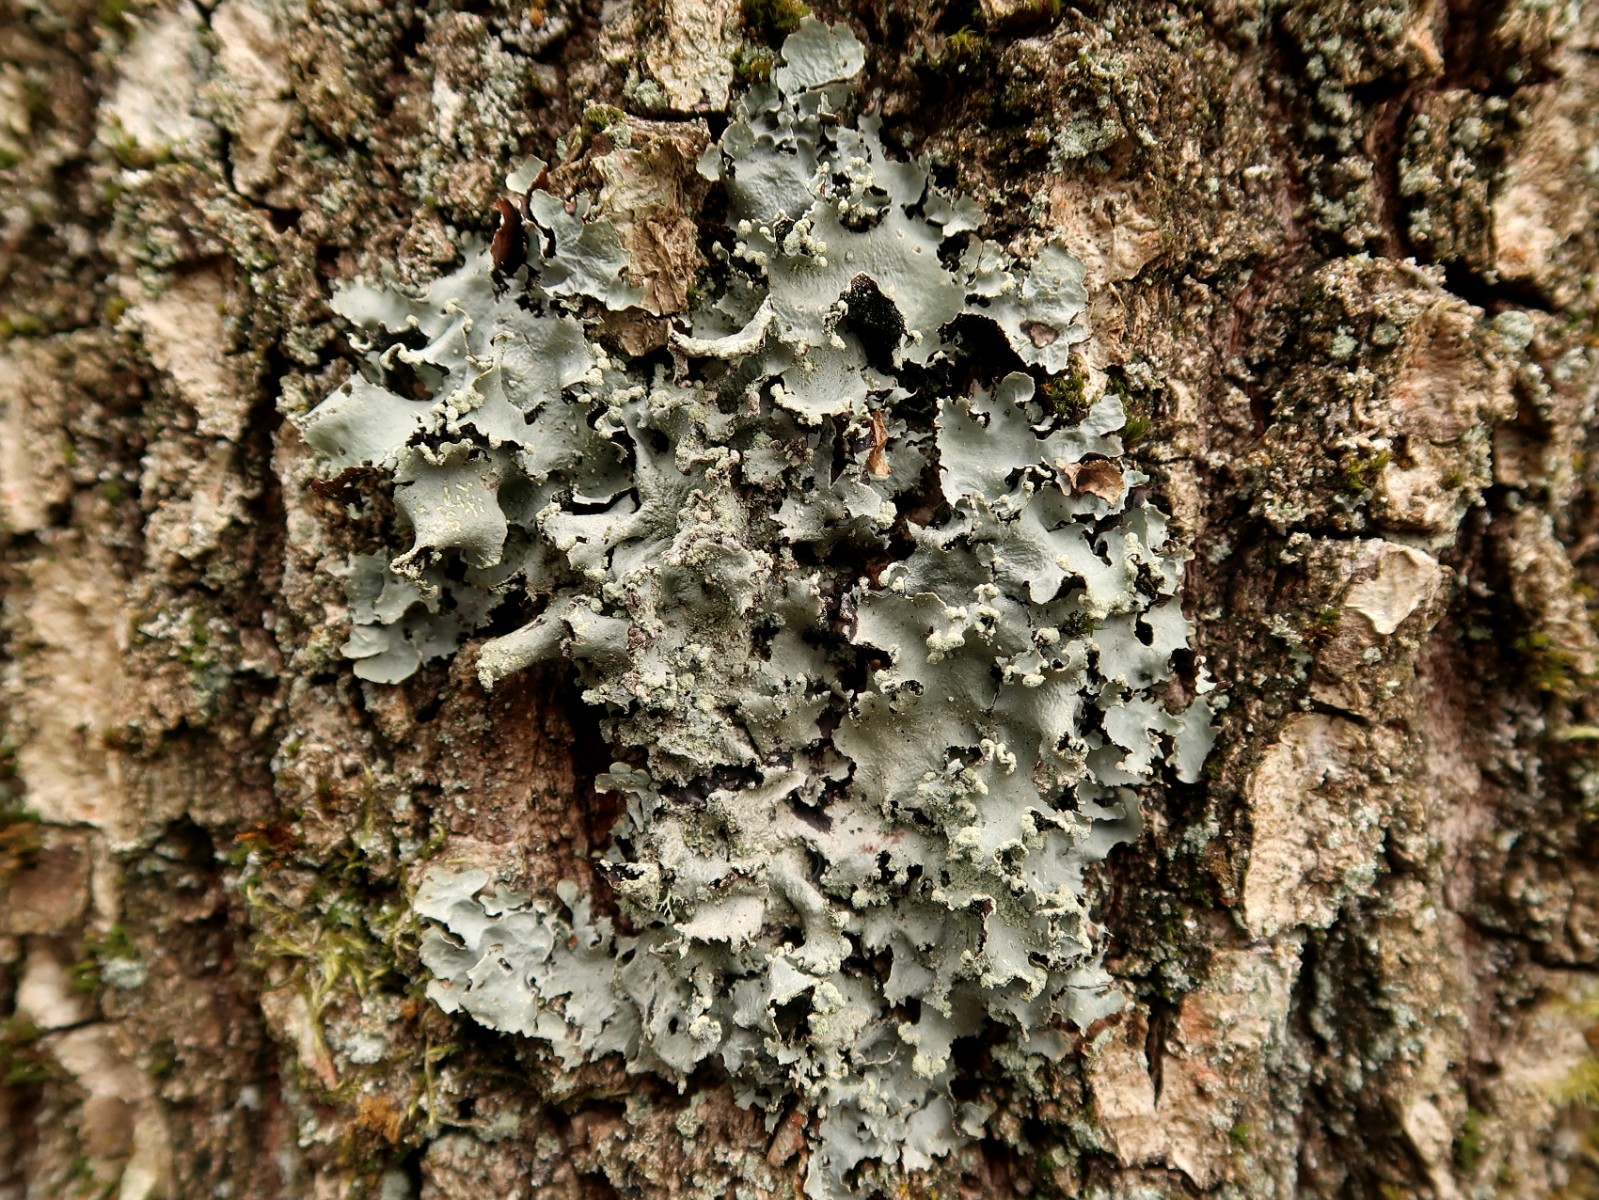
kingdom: Fungi
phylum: Ascomycota
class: Lecanoromycetes
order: Lecanorales
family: Parmeliaceae
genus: Parmotrema
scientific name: Parmotrema perlatum
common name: trådet skållav
